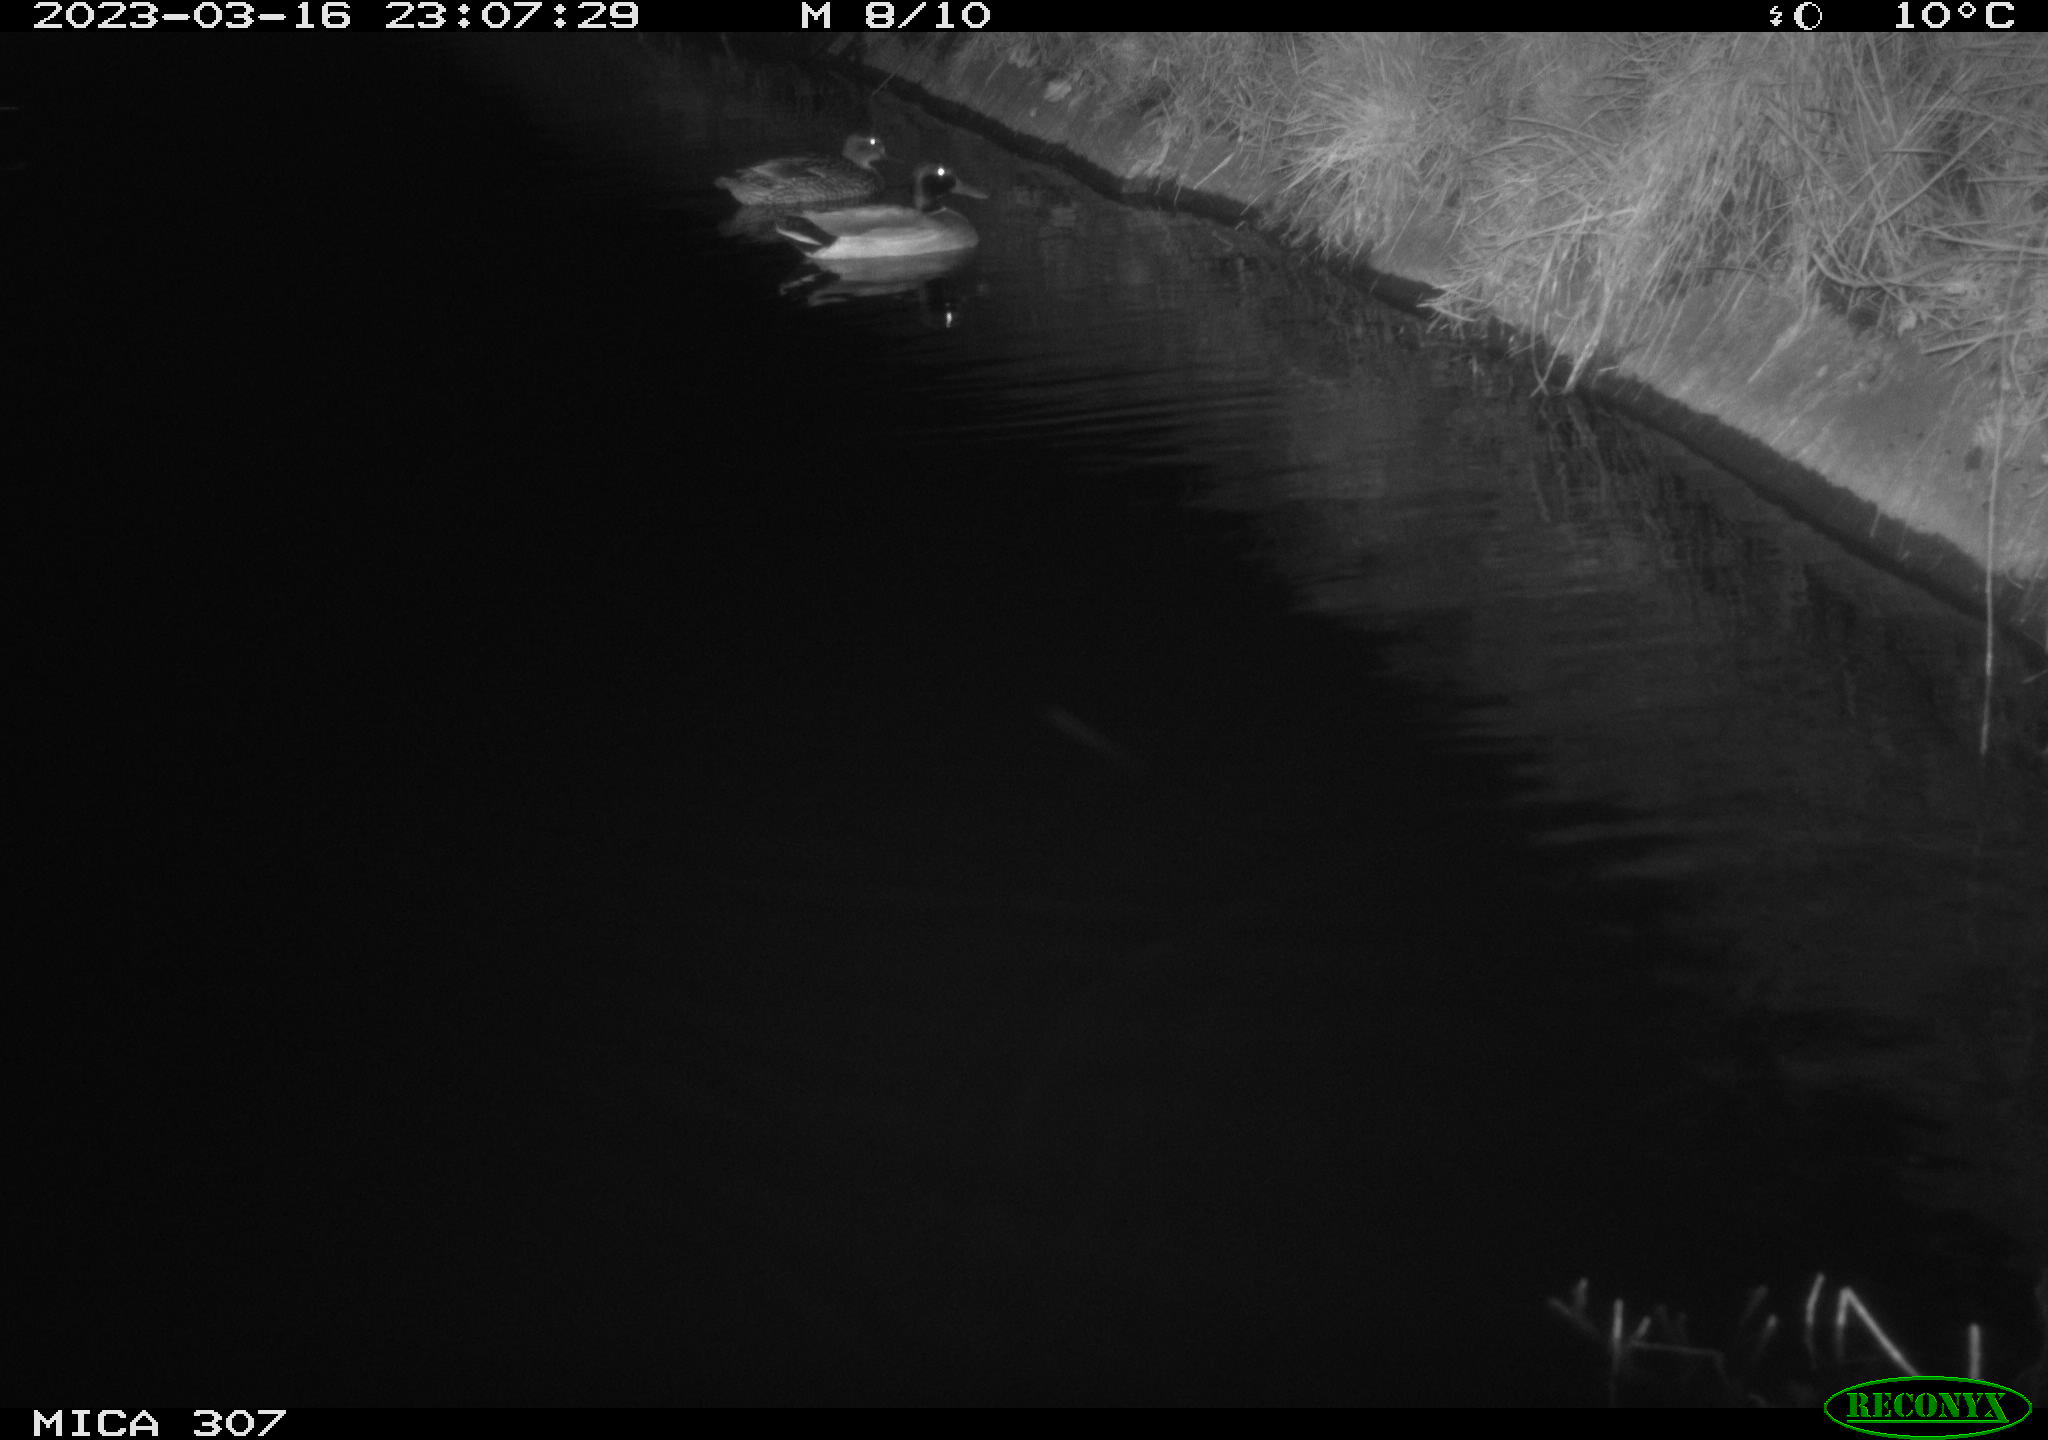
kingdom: Animalia
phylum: Chordata
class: Aves
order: Anseriformes
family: Anatidae
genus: Anas
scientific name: Anas
